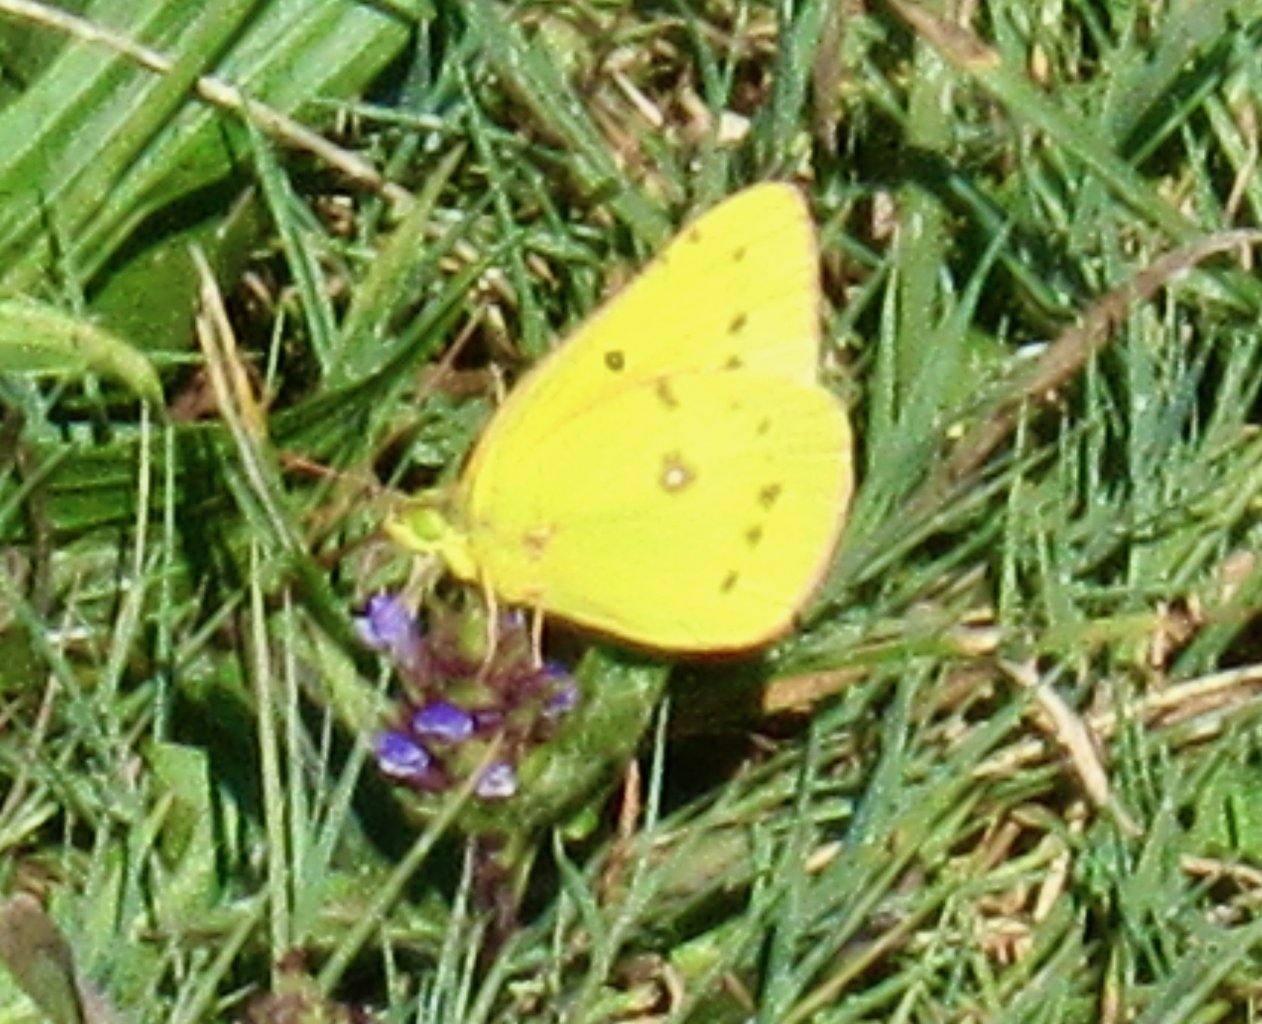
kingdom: Animalia
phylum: Arthropoda
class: Insecta
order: Lepidoptera
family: Pieridae
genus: Colias
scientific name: Colias philodice
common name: Clouded Sulphur
